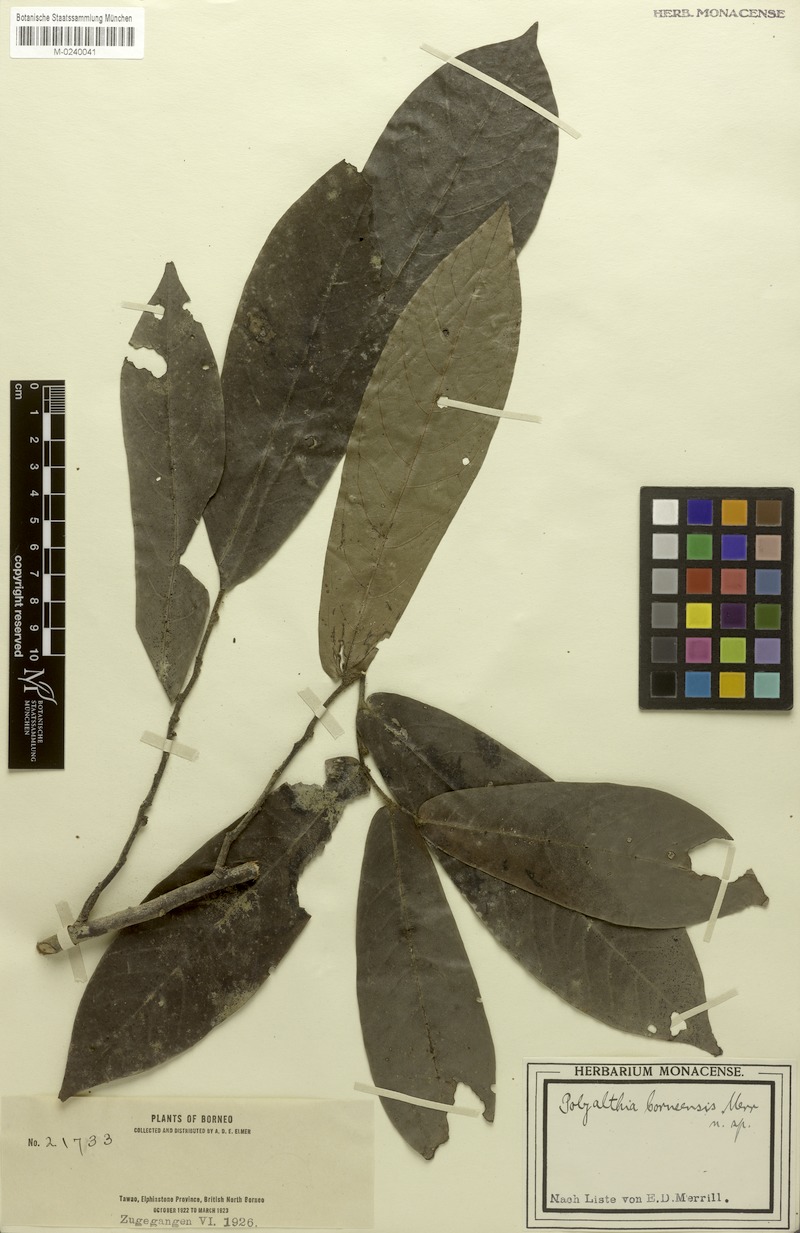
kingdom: Plantae
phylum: Tracheophyta
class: Magnoliopsida
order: Magnoliales
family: Annonaceae
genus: Polyalthia
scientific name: Polyalthia borneensis
